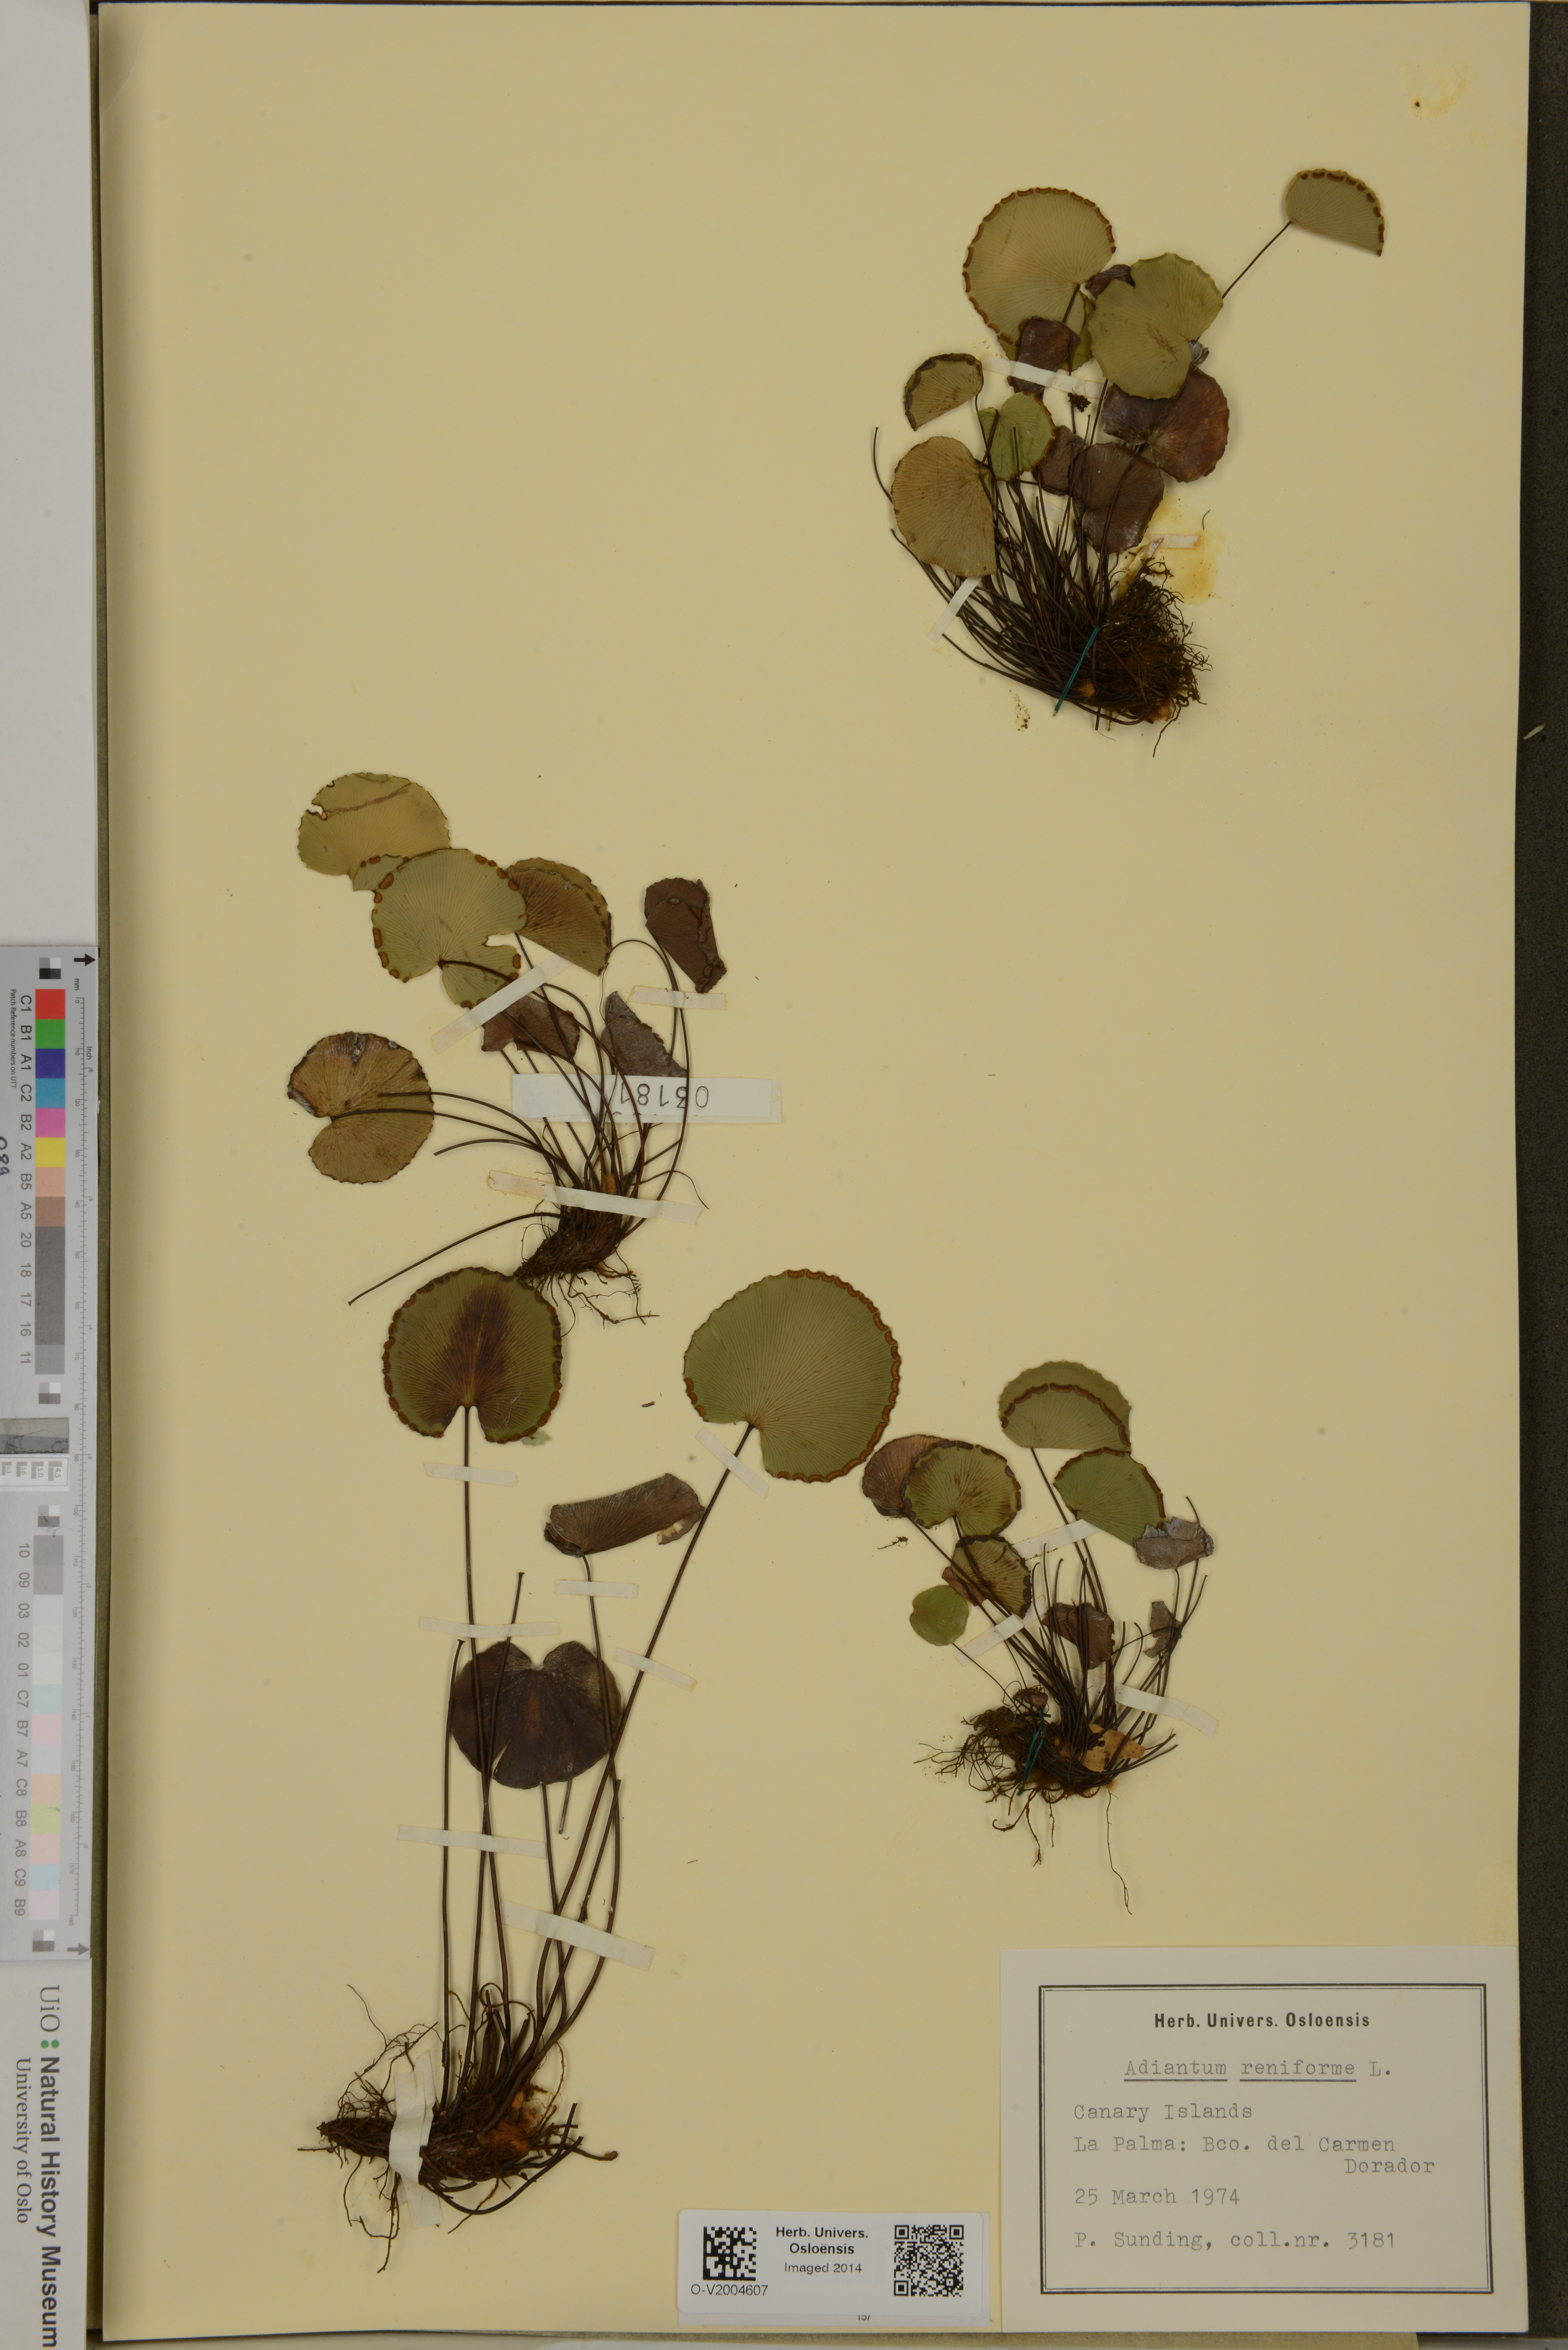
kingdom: Plantae
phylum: Tracheophyta
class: Polypodiopsida
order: Polypodiales
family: Pteridaceae
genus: Adiantum
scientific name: Adiantum reniforme
